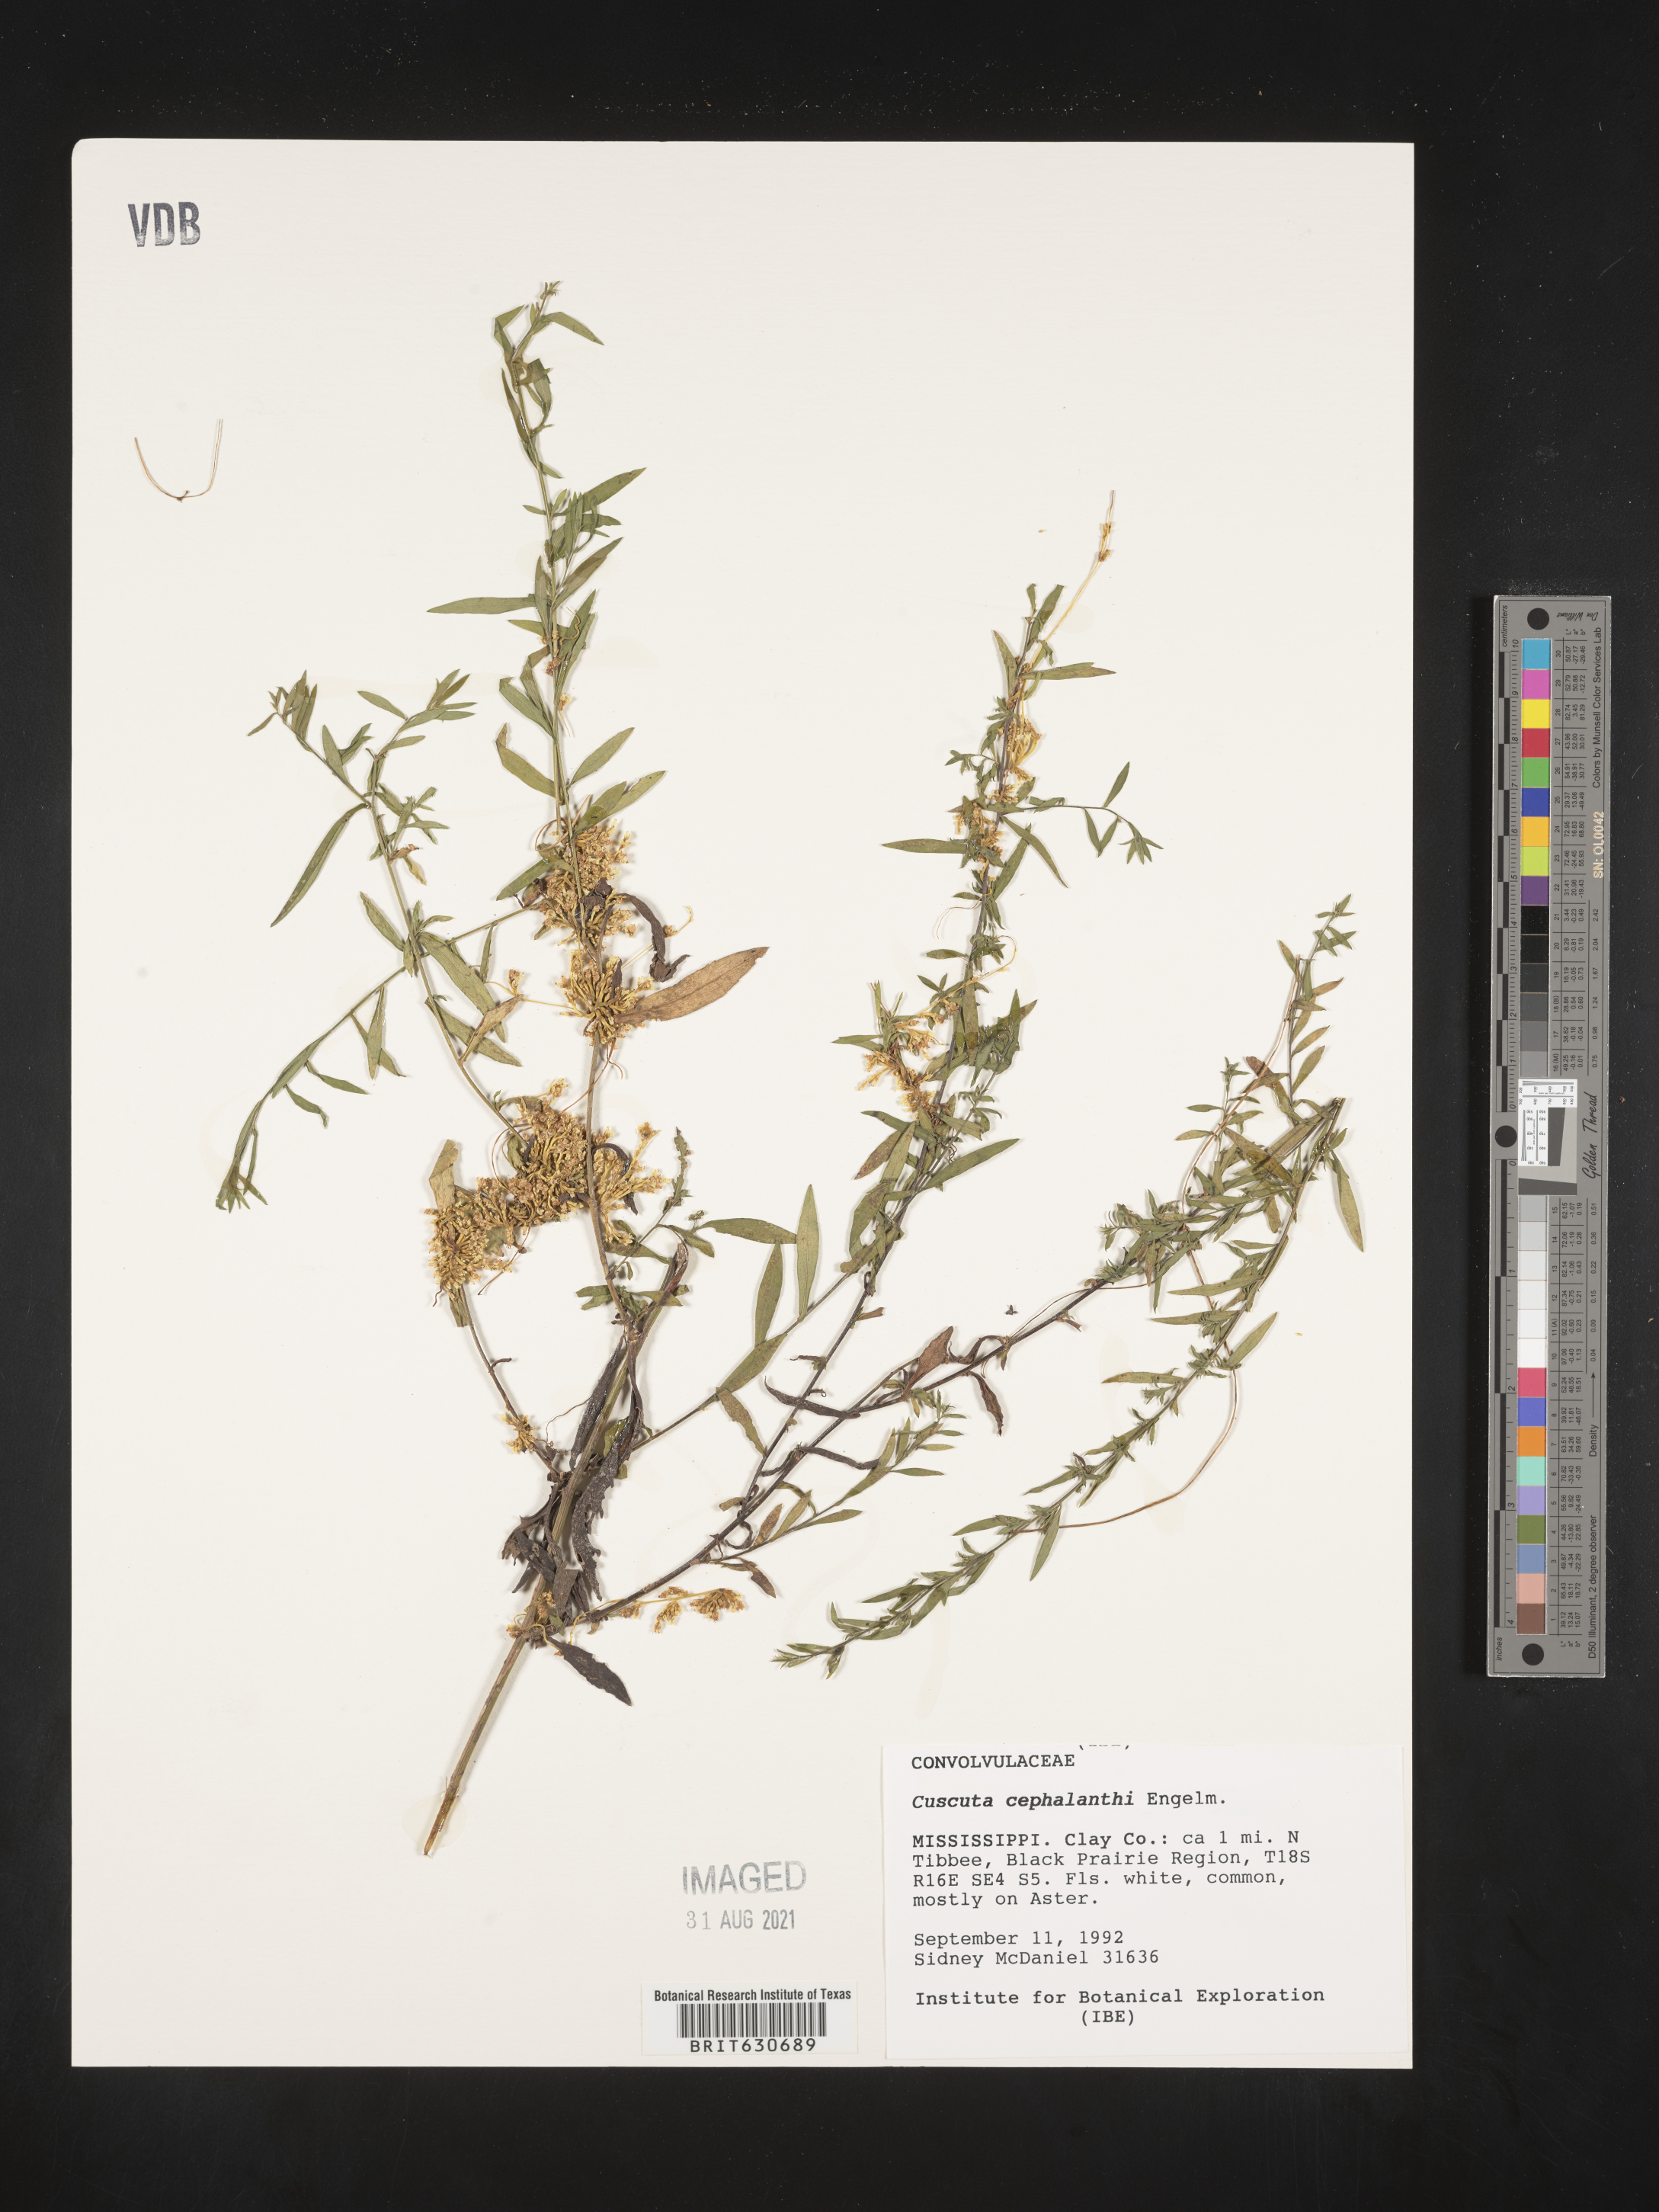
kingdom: Plantae
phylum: Tracheophyta
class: Magnoliopsida
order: Solanales
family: Convolvulaceae
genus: Cuscuta
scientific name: Cuscuta cephalanthi
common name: Button dodder
